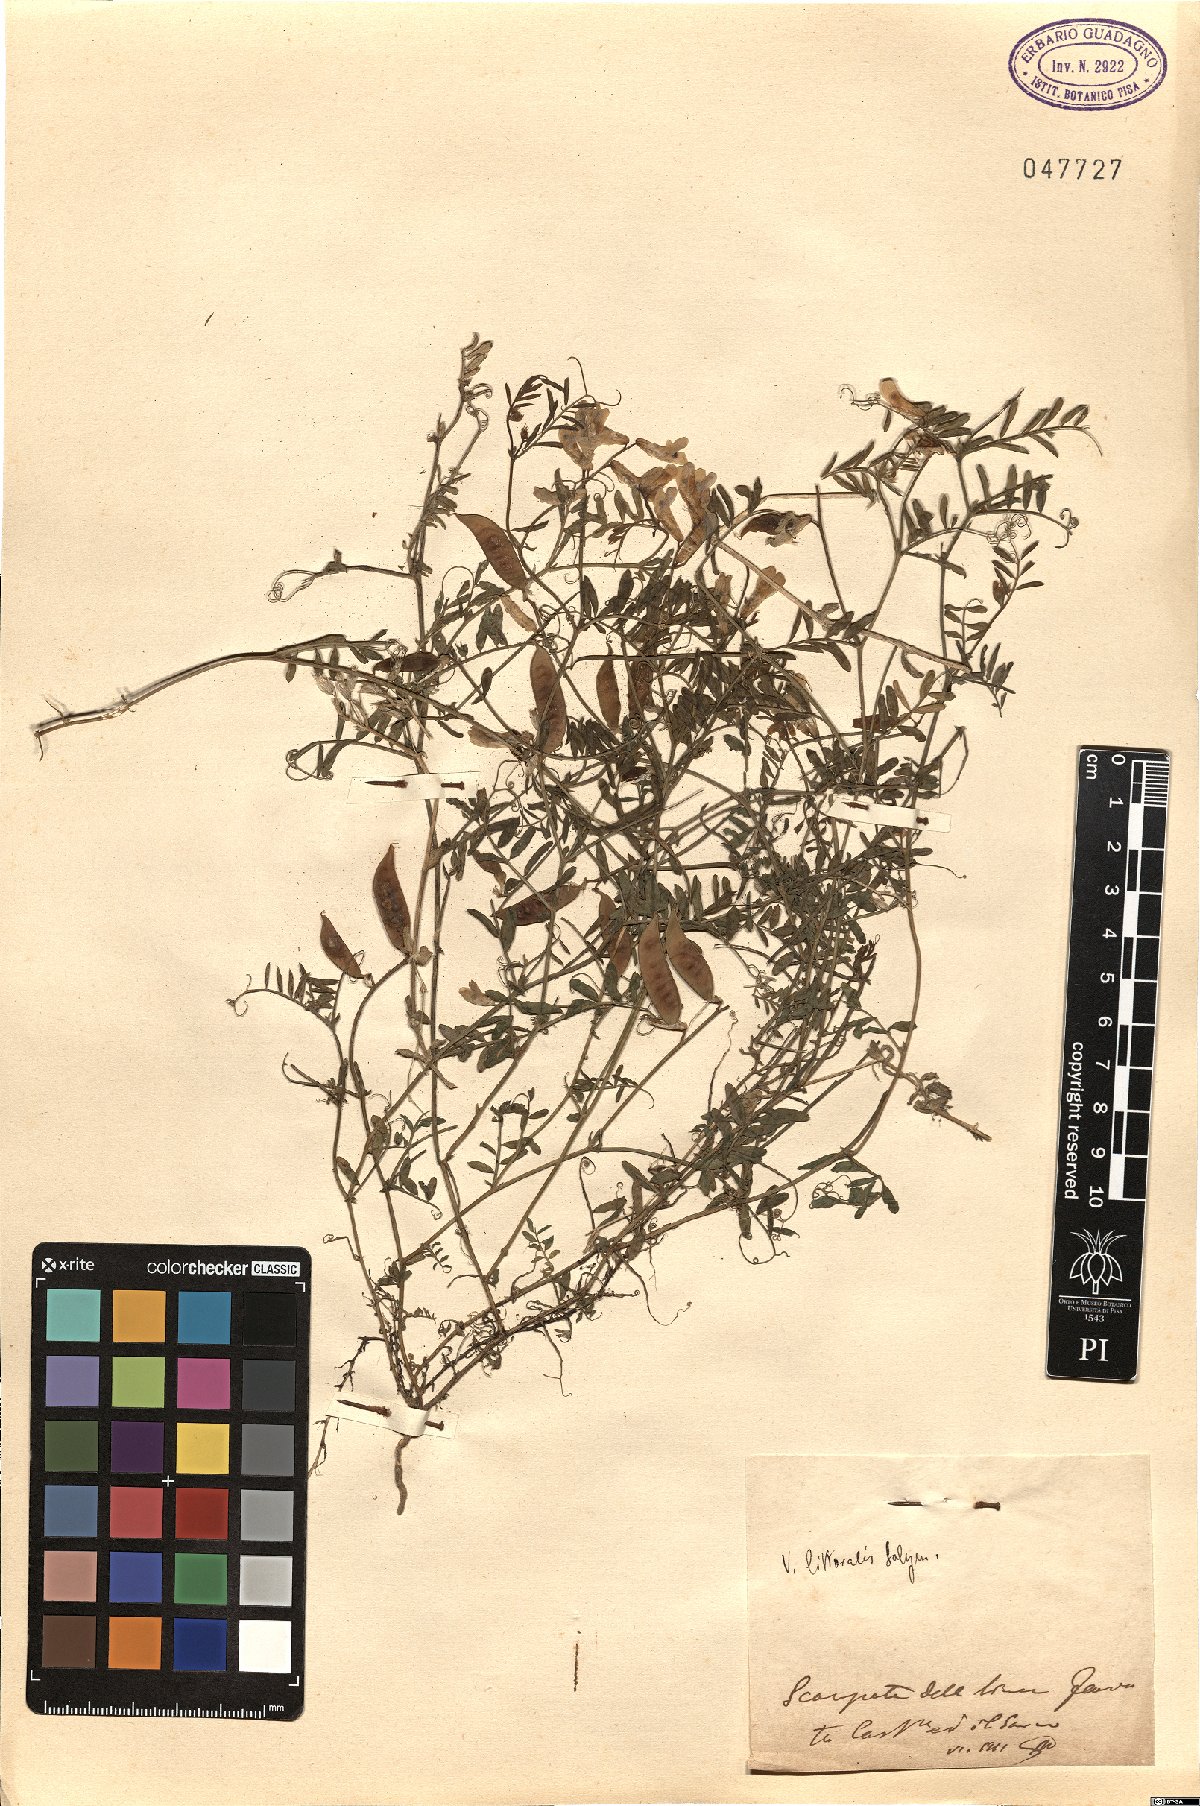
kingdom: Plantae
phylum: Tracheophyta
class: Magnoliopsida
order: Fabales
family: Fabaceae
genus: Vicia
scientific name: Vicia villosa
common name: Fodder vetch
